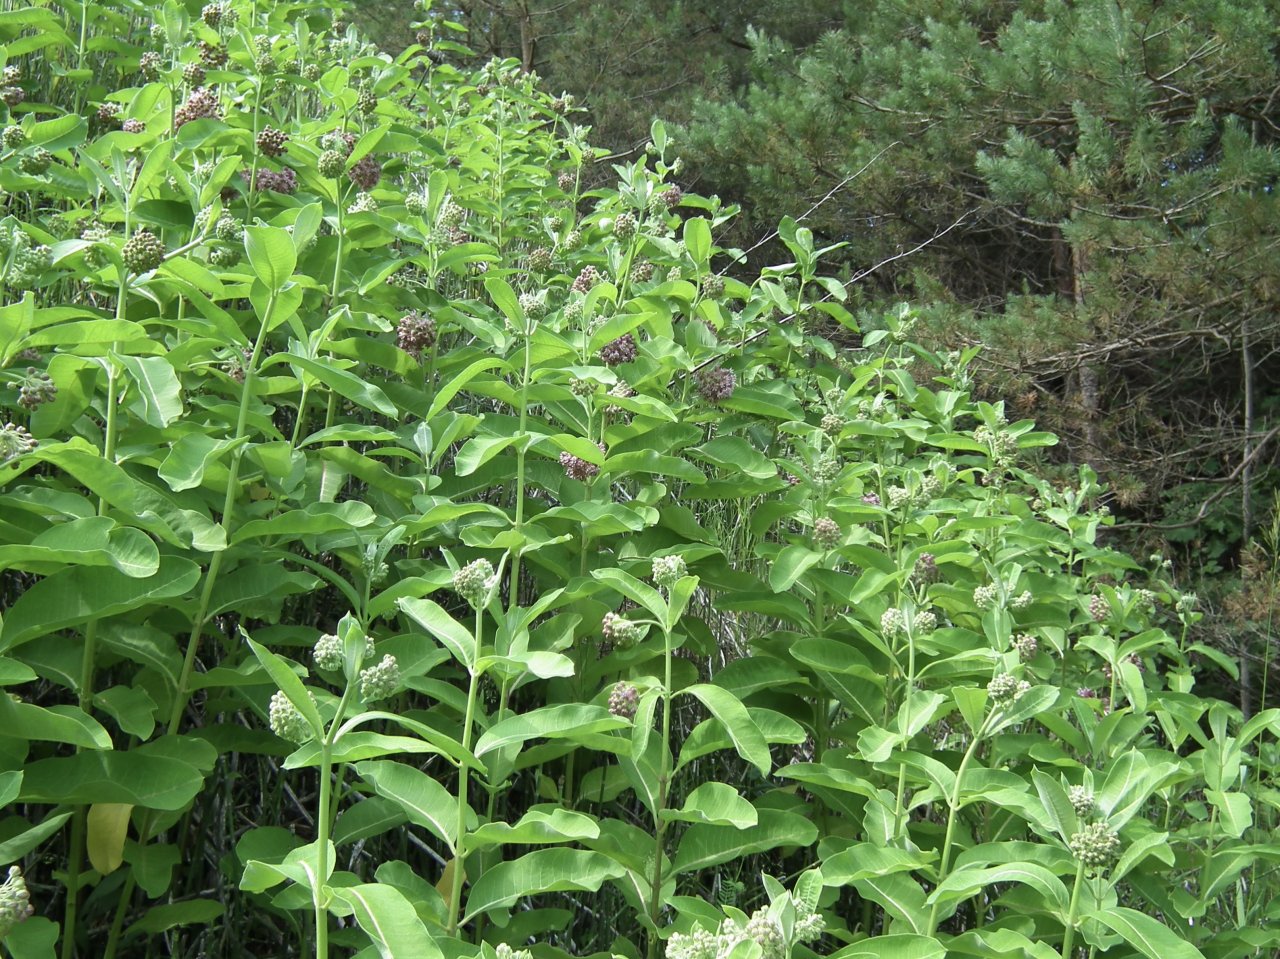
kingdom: Animalia
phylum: Arthropoda
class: Insecta
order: Lepidoptera
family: Nymphalidae
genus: Danaus
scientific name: Danaus plexippus
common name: Monarch
